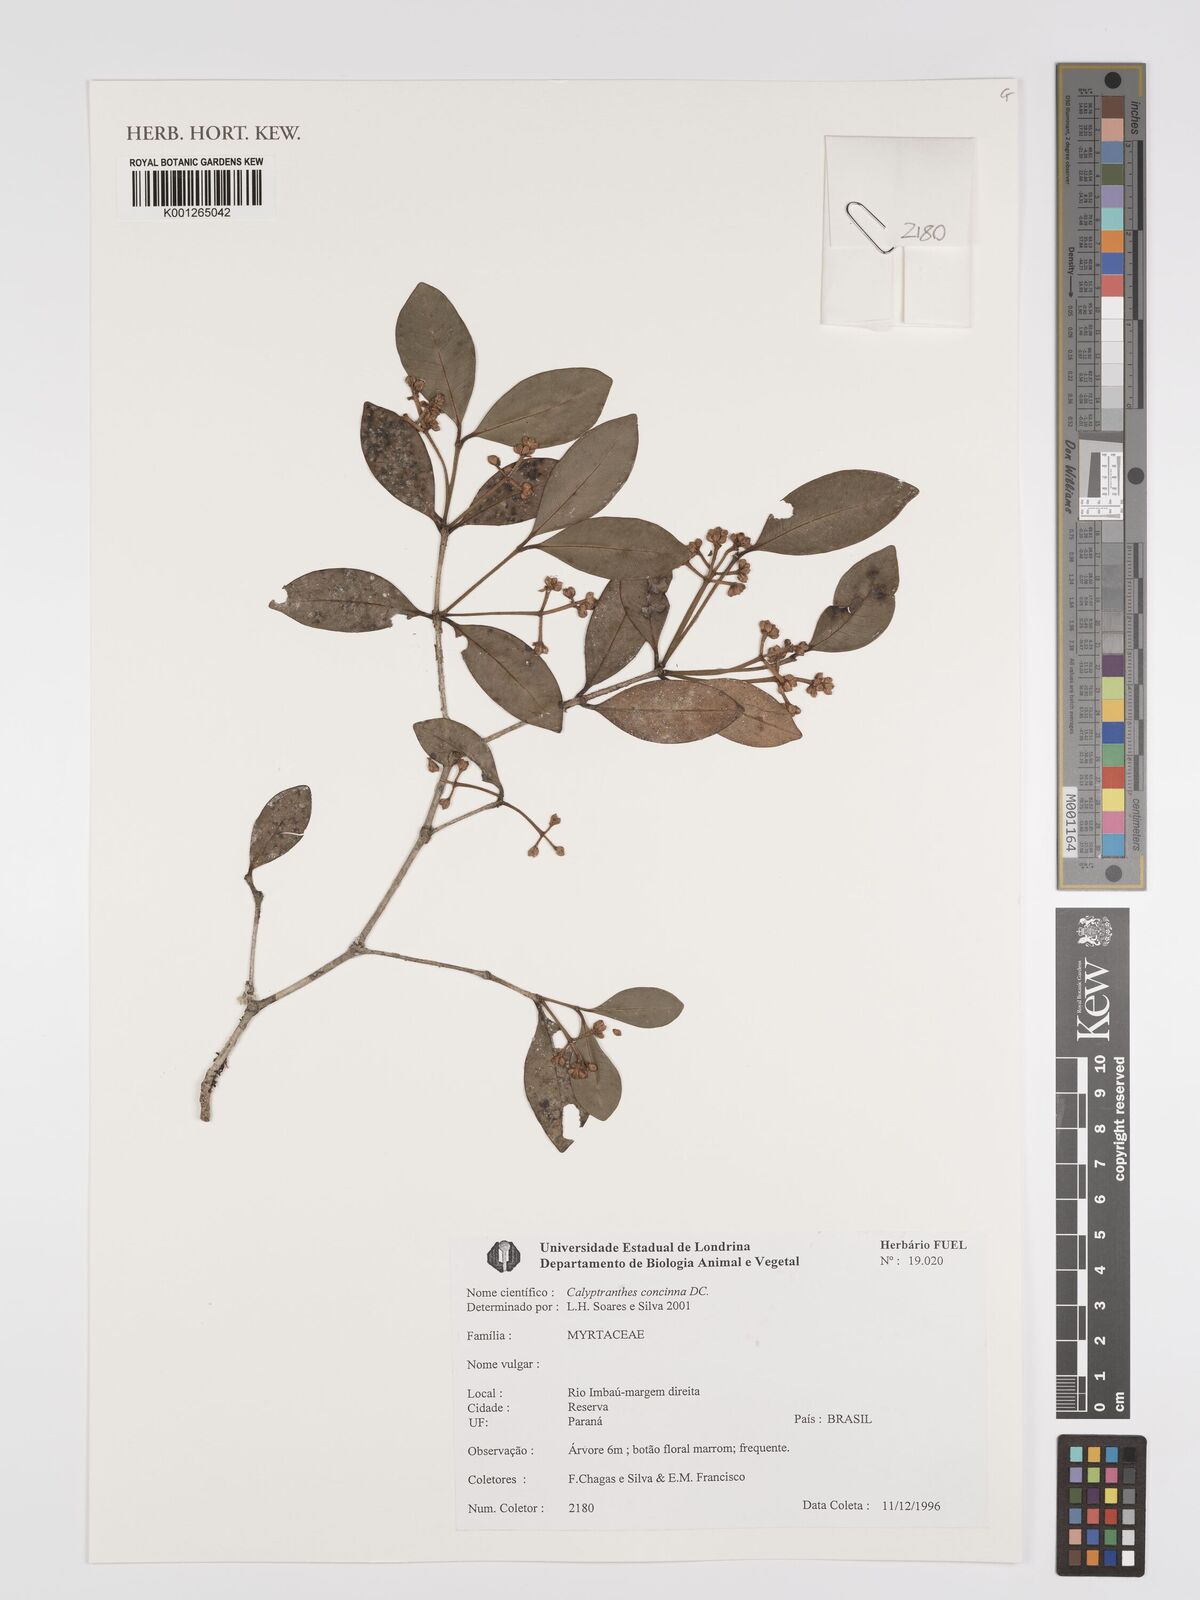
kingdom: Plantae
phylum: Tracheophyta
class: Magnoliopsida
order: Myrtales
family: Myrtaceae
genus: Myrcia
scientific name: Myrcia cruciflora
